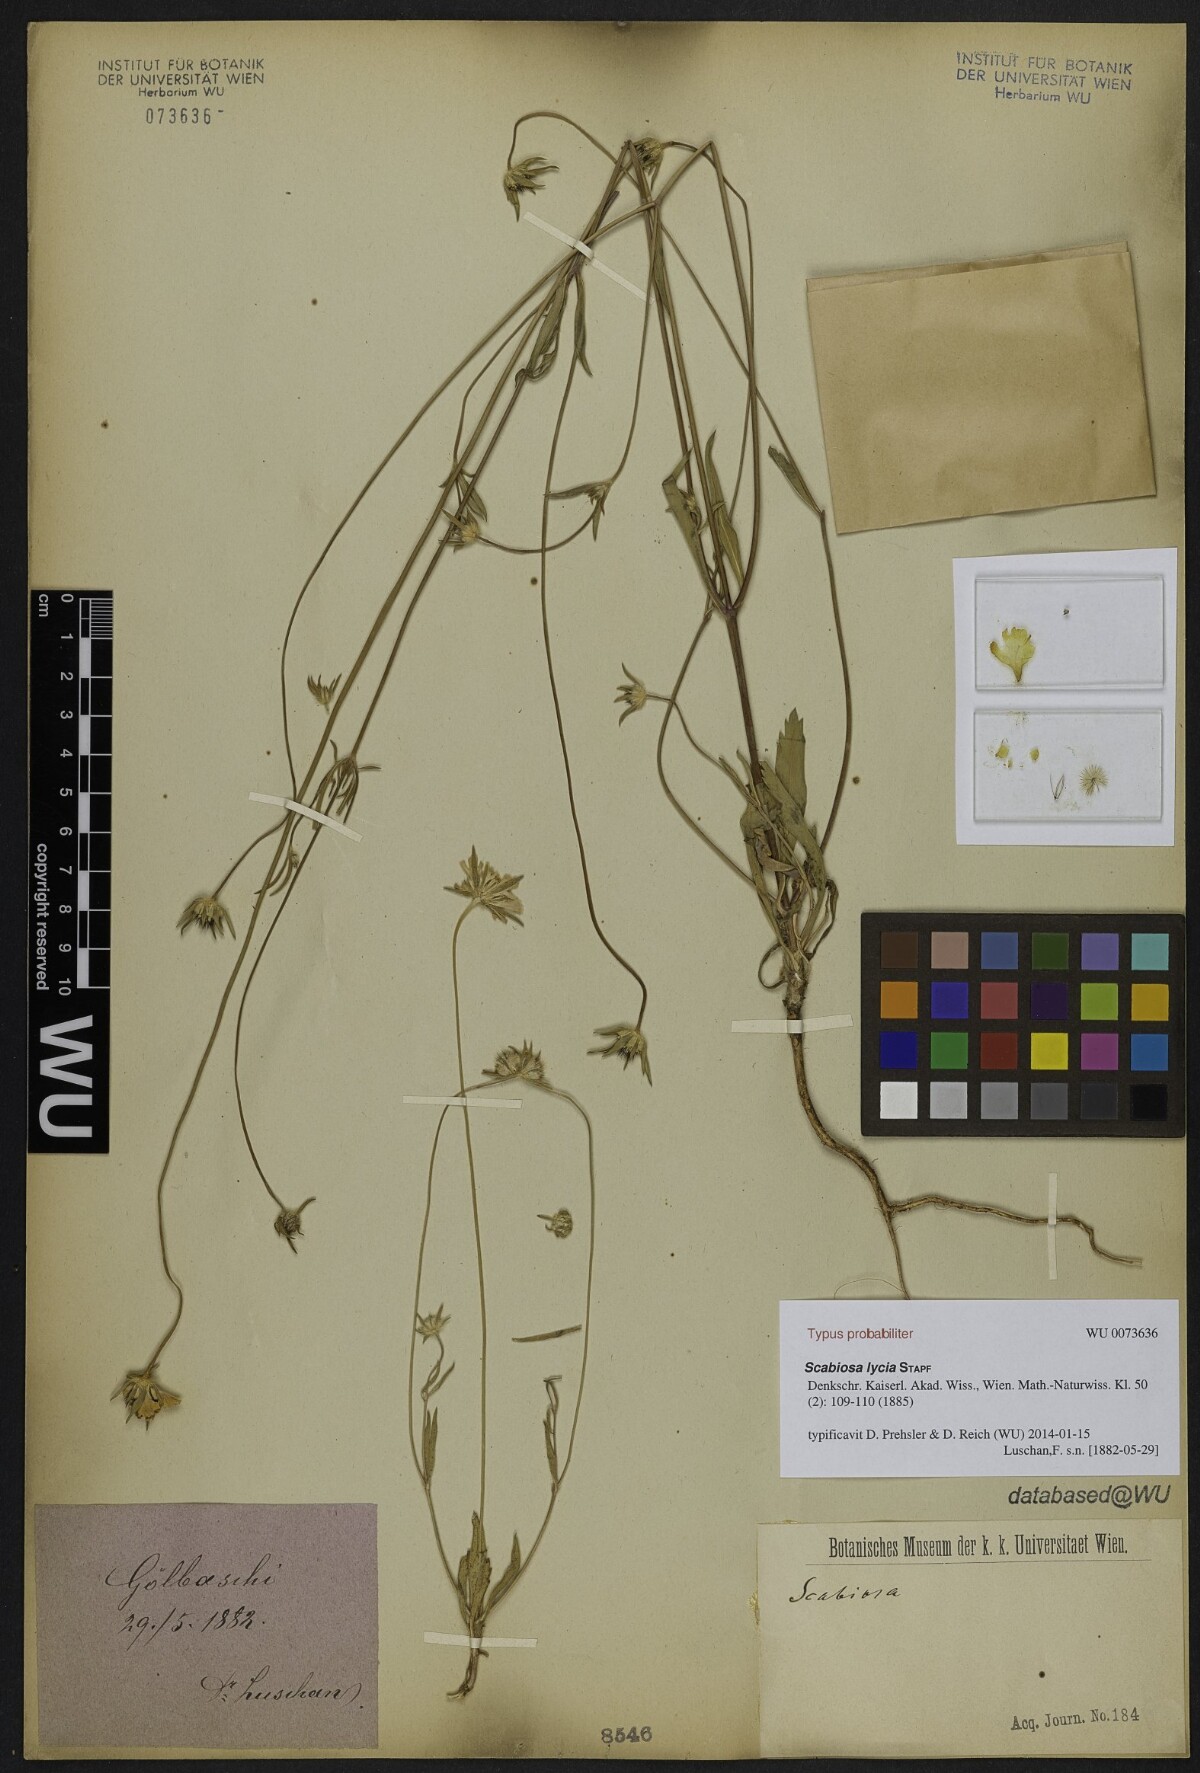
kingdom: Plantae
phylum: Tracheophyta
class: Magnoliopsida
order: Dipsacales
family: Caprifoliaceae
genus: Lomelosia
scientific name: Lomelosia lycia
